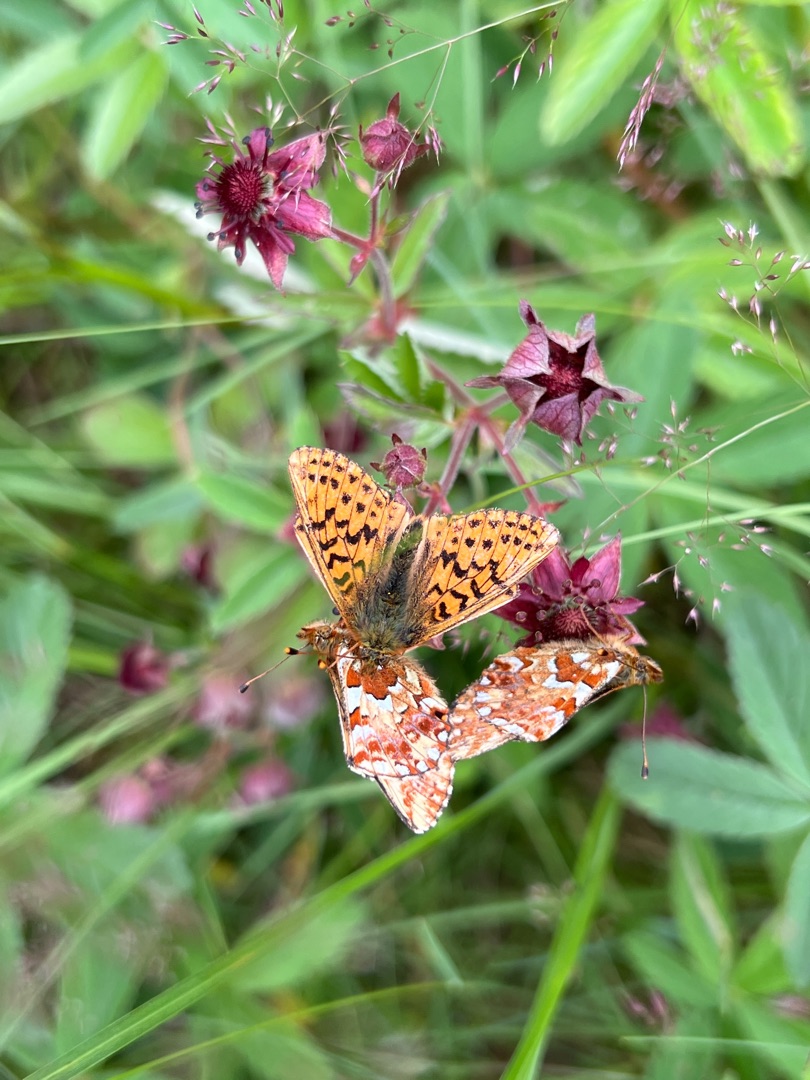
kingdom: Animalia
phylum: Arthropoda
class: Insecta
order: Lepidoptera
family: Nymphalidae
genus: Boloria
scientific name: Boloria aquilonaris
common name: Moseperlemorsommerfugl
